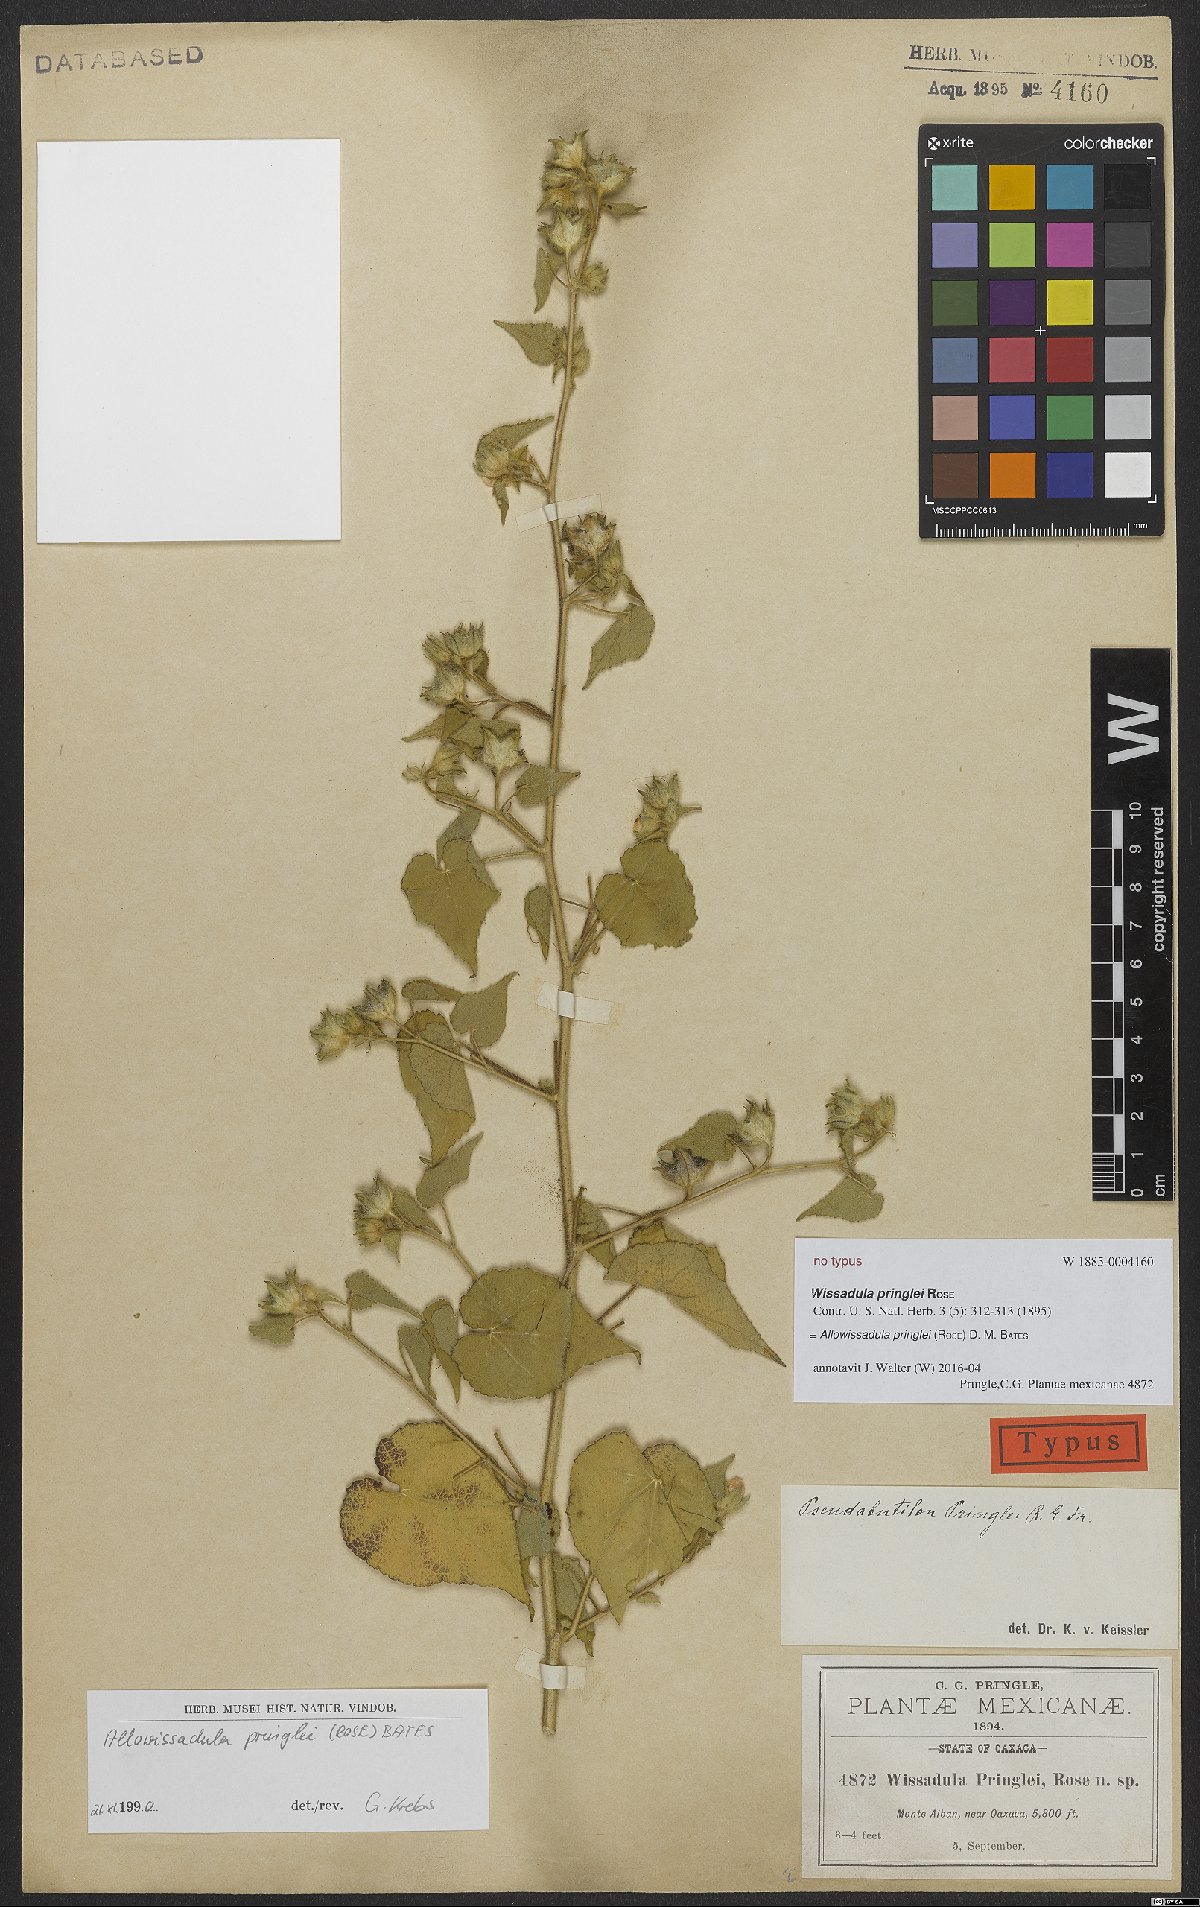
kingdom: Plantae
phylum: Tracheophyta
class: Magnoliopsida
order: Malvales
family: Malvaceae
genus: Allowissadula
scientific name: Allowissadula pringlei
